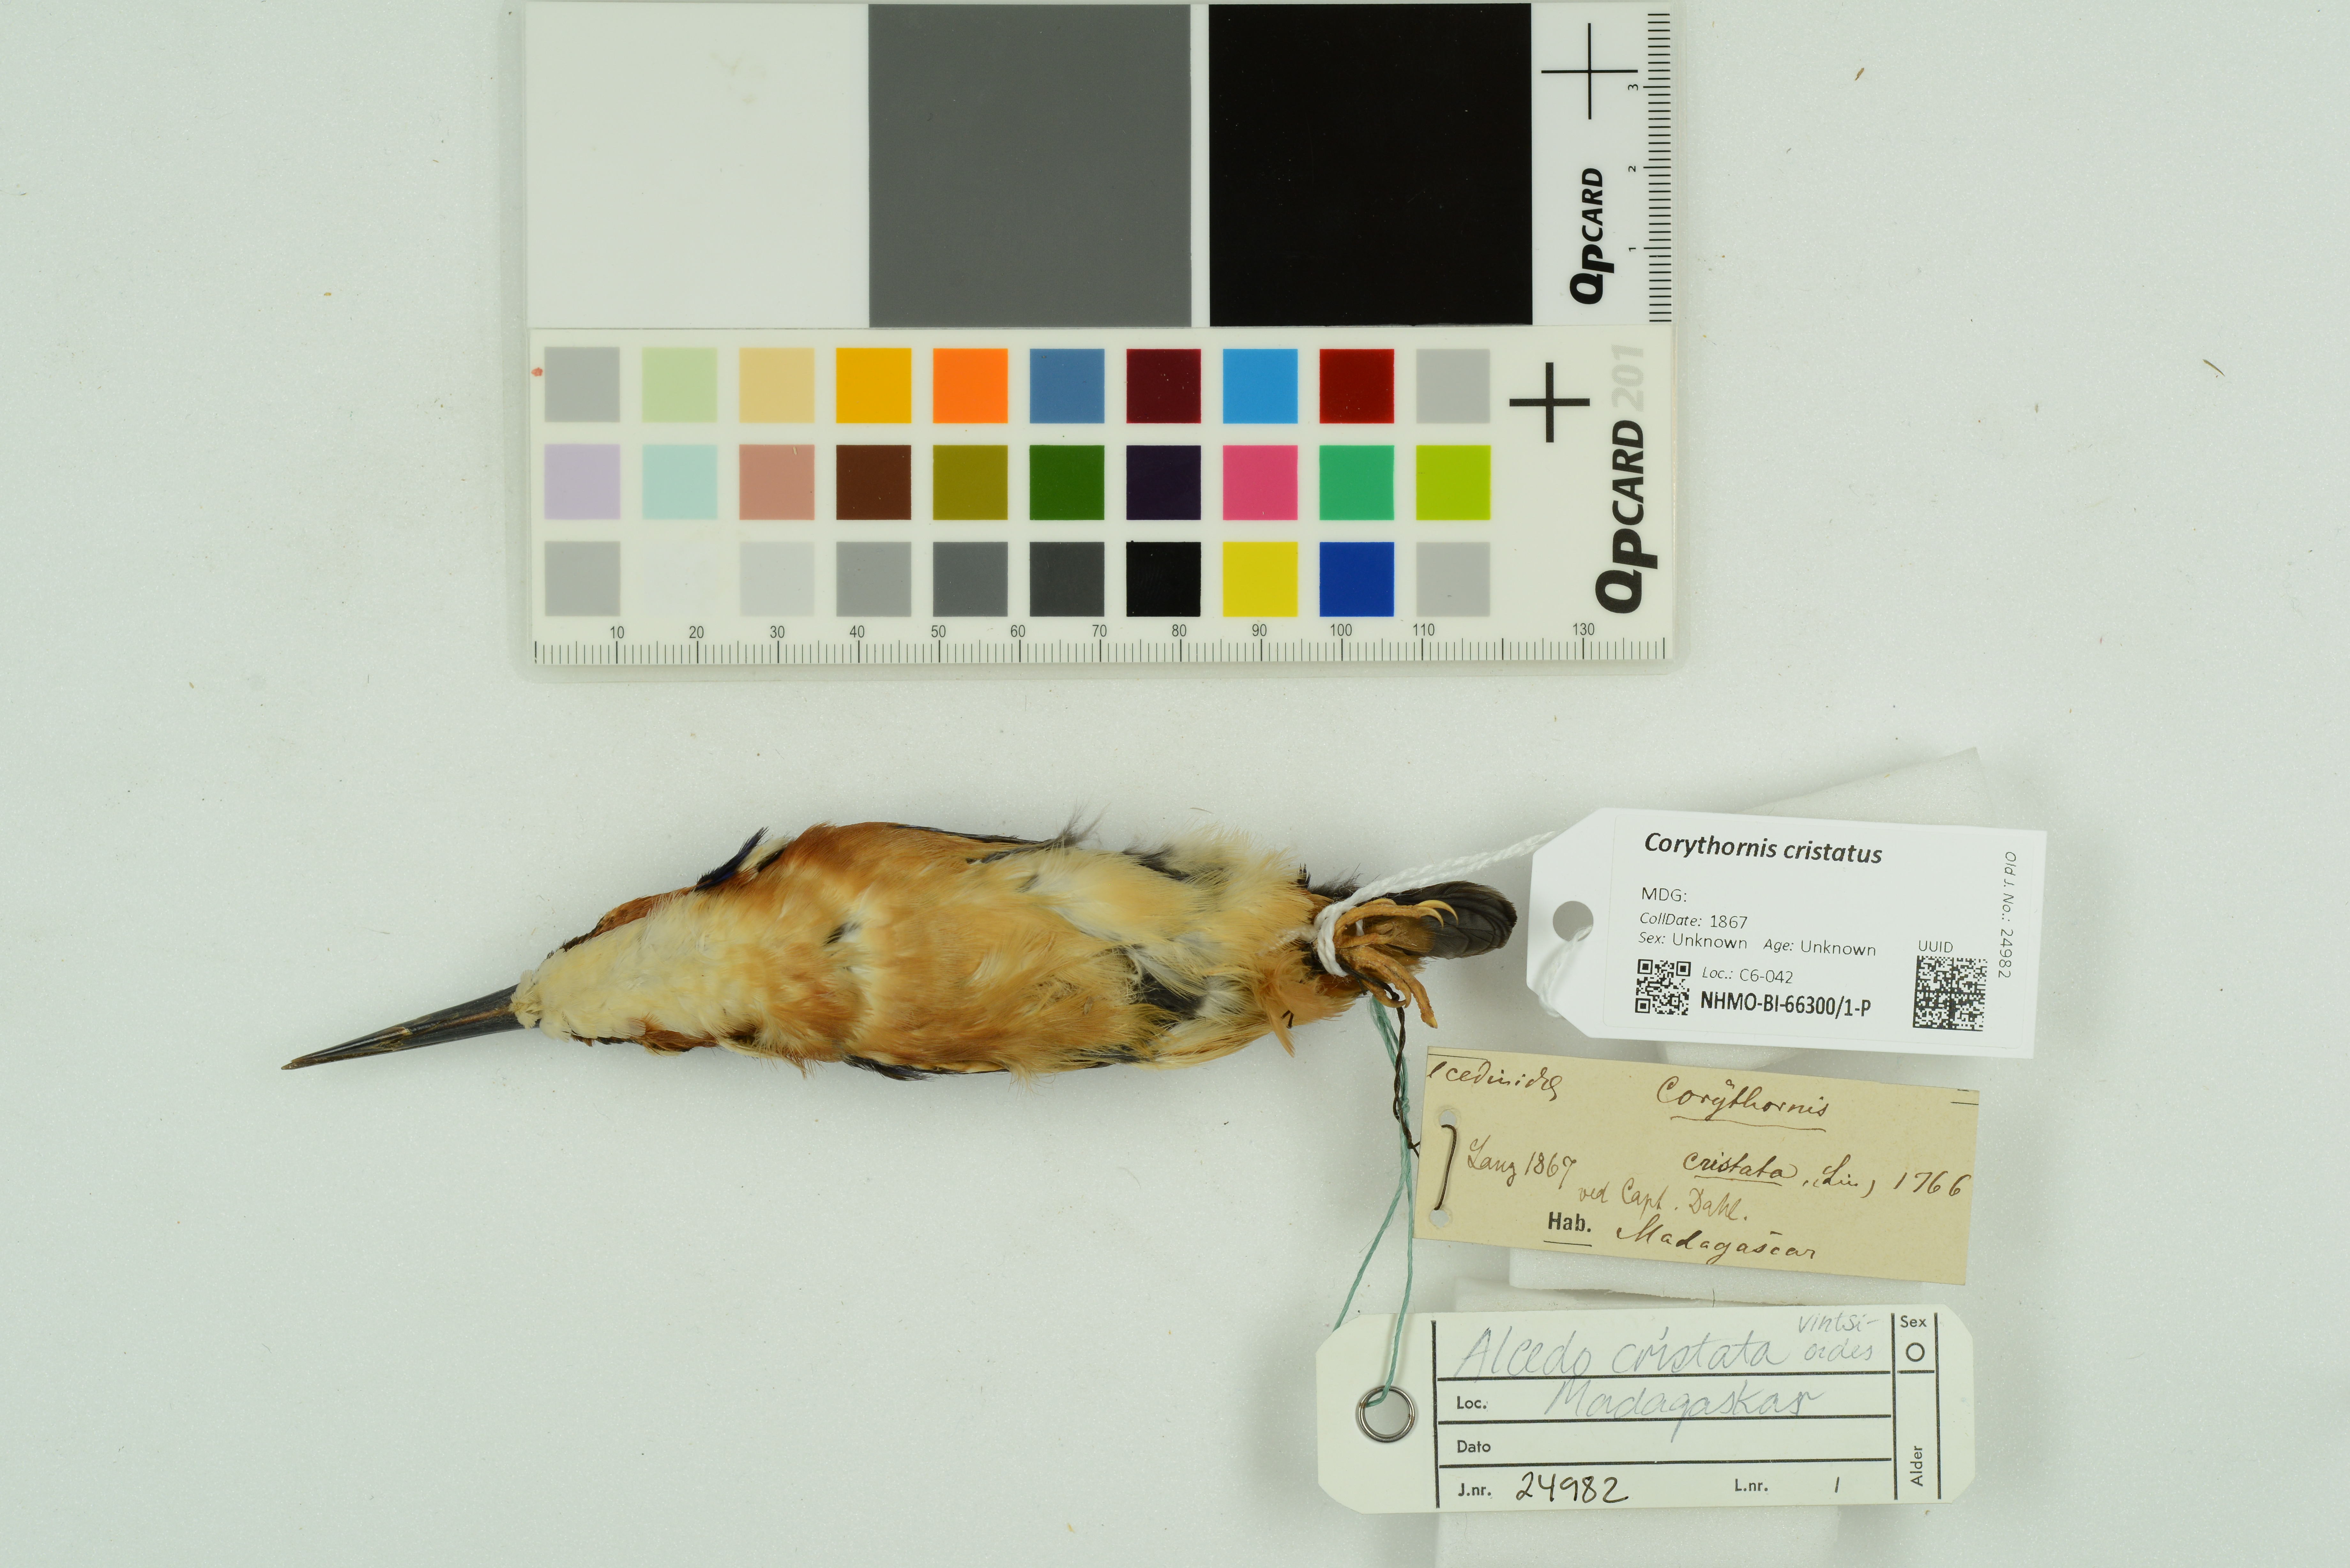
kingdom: Animalia
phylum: Chordata
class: Aves
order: Coraciiformes
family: Alcedinidae
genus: Corythornis
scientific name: Corythornis cristatus
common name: Malachite kingfisher
